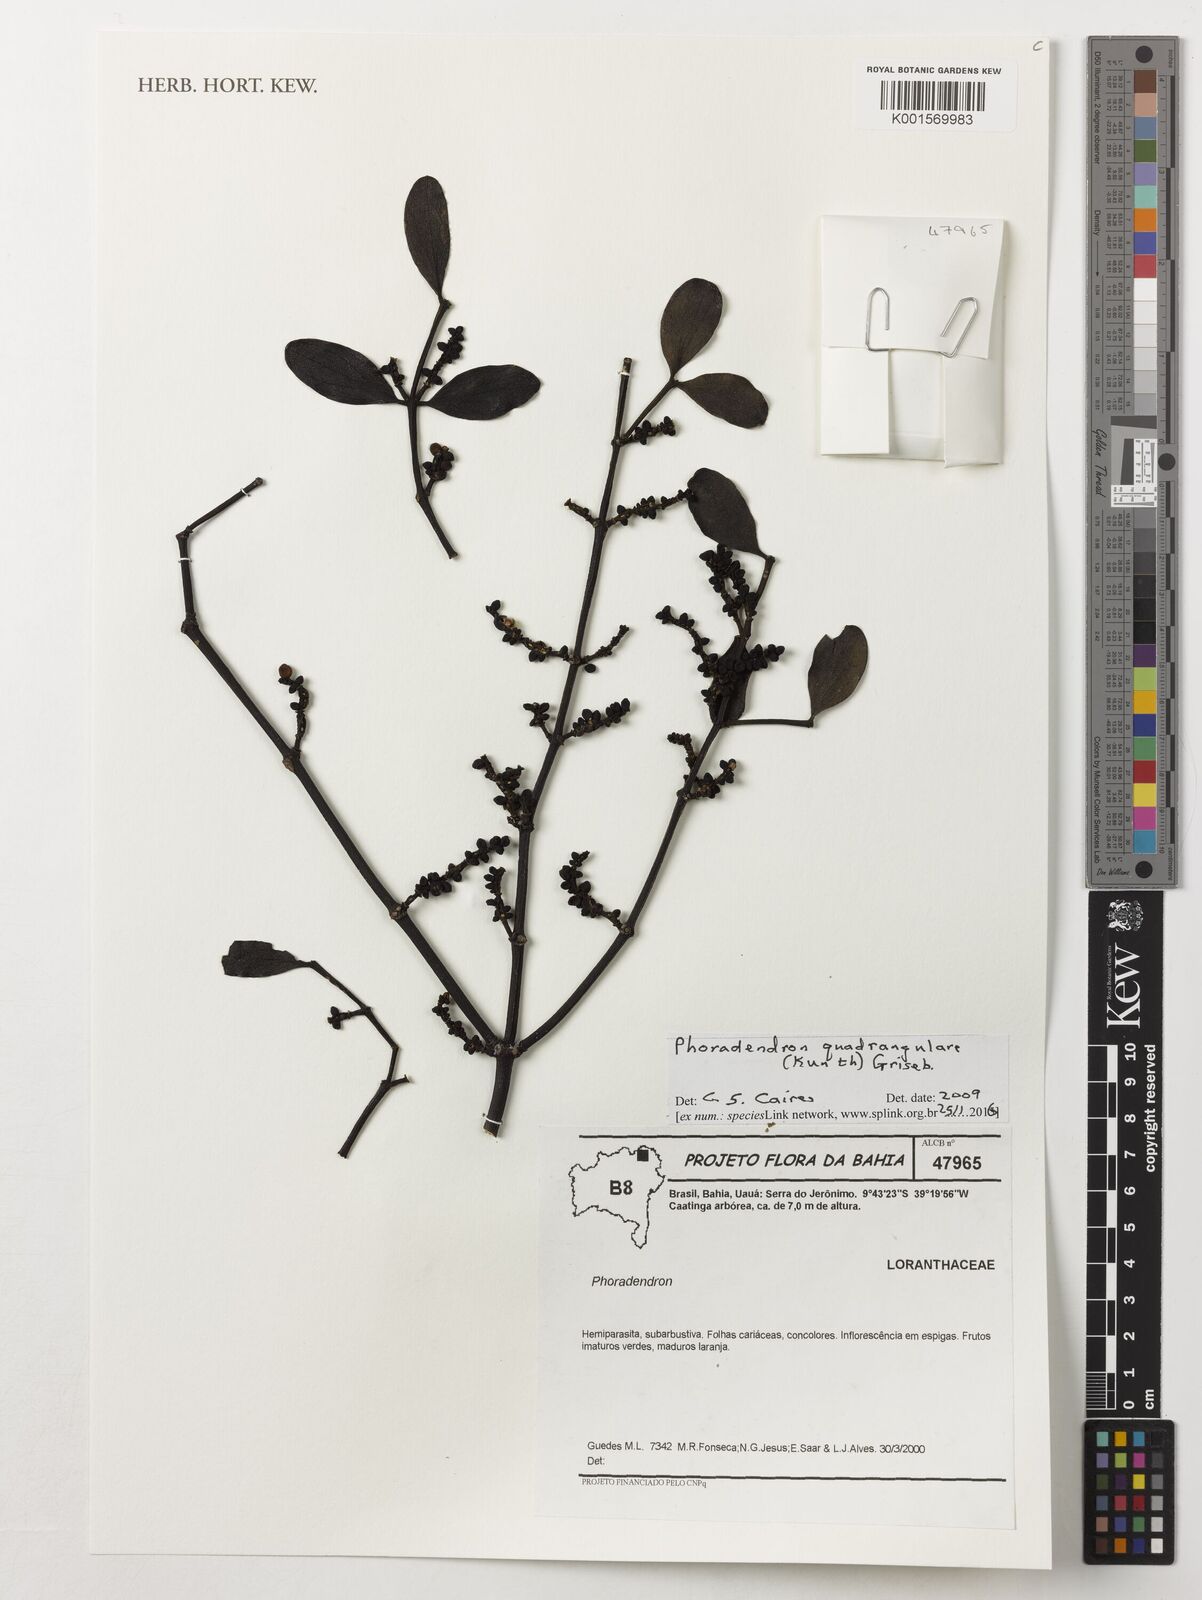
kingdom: Plantae
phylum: Tracheophyta
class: Magnoliopsida
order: Santalales
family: Viscaceae
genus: Phoradendron
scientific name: Phoradendron quadrangulare
